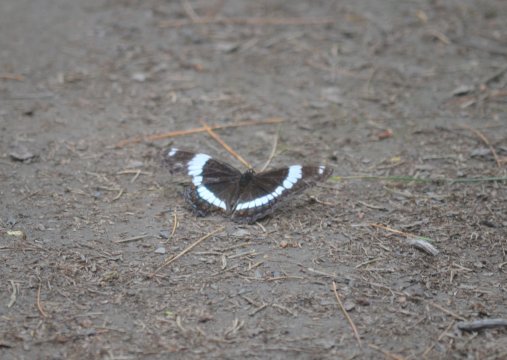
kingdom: Animalia
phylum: Arthropoda
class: Insecta
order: Lepidoptera
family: Nymphalidae
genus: Limenitis
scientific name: Limenitis arthemis
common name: Red-spotted Admiral
